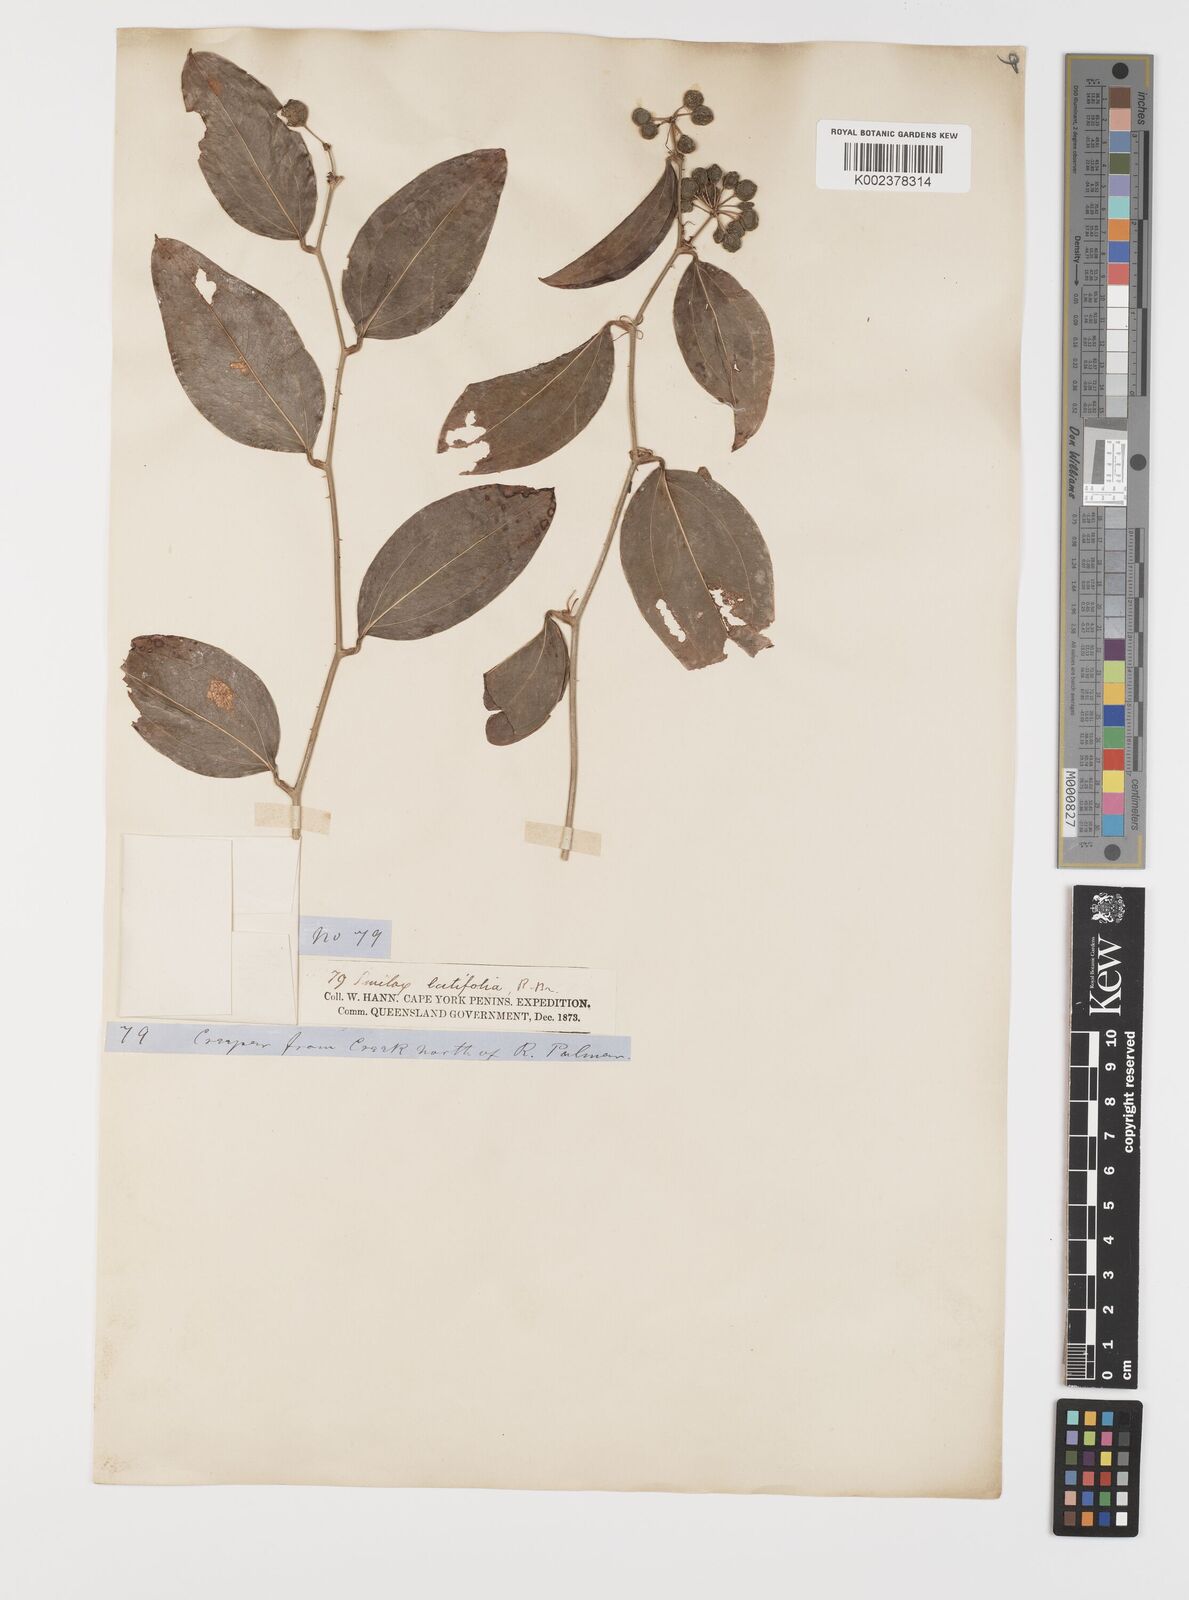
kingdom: Plantae
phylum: Tracheophyta
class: Liliopsida
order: Liliales
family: Smilacaceae
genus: Smilax
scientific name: Smilax australis
